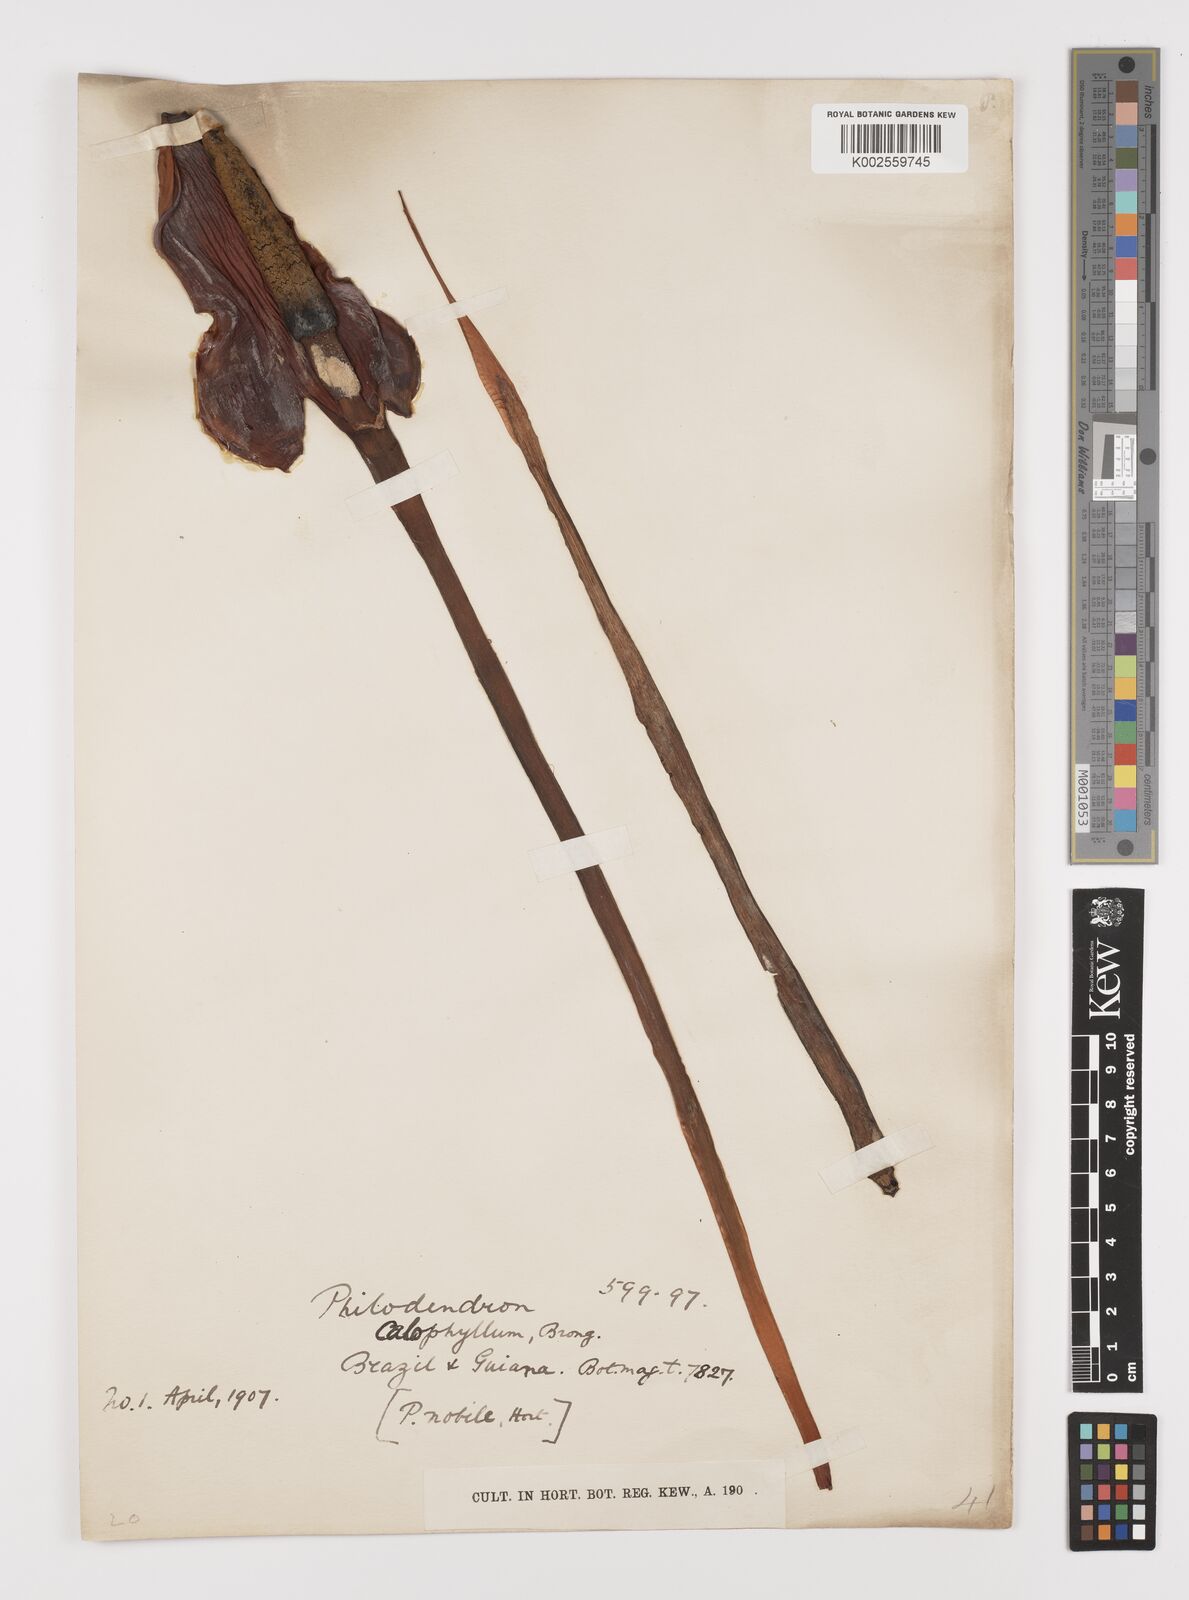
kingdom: Plantae
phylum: Tracheophyta
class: Liliopsida
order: Alismatales
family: Araceae
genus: Philodendron
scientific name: Philodendron insigne
